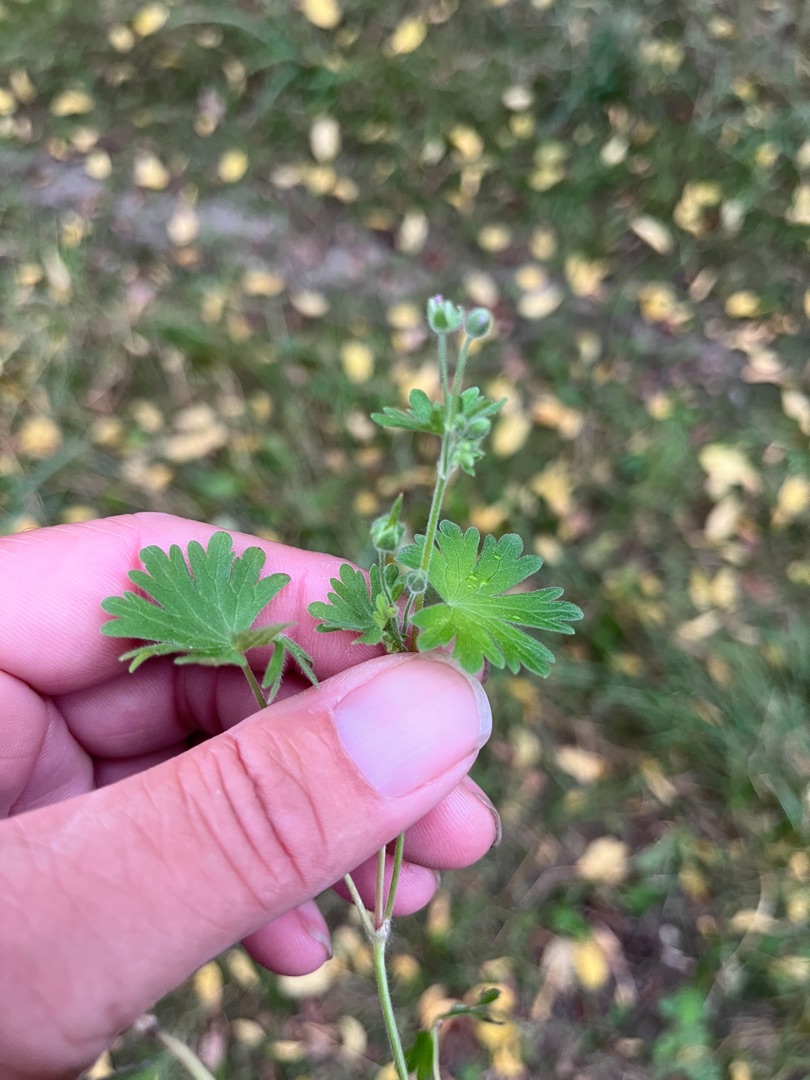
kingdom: Plantae
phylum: Tracheophyta
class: Magnoliopsida
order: Geraniales
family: Geraniaceae
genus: Geranium
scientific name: Geranium pusillum
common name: Liden storkenæb
